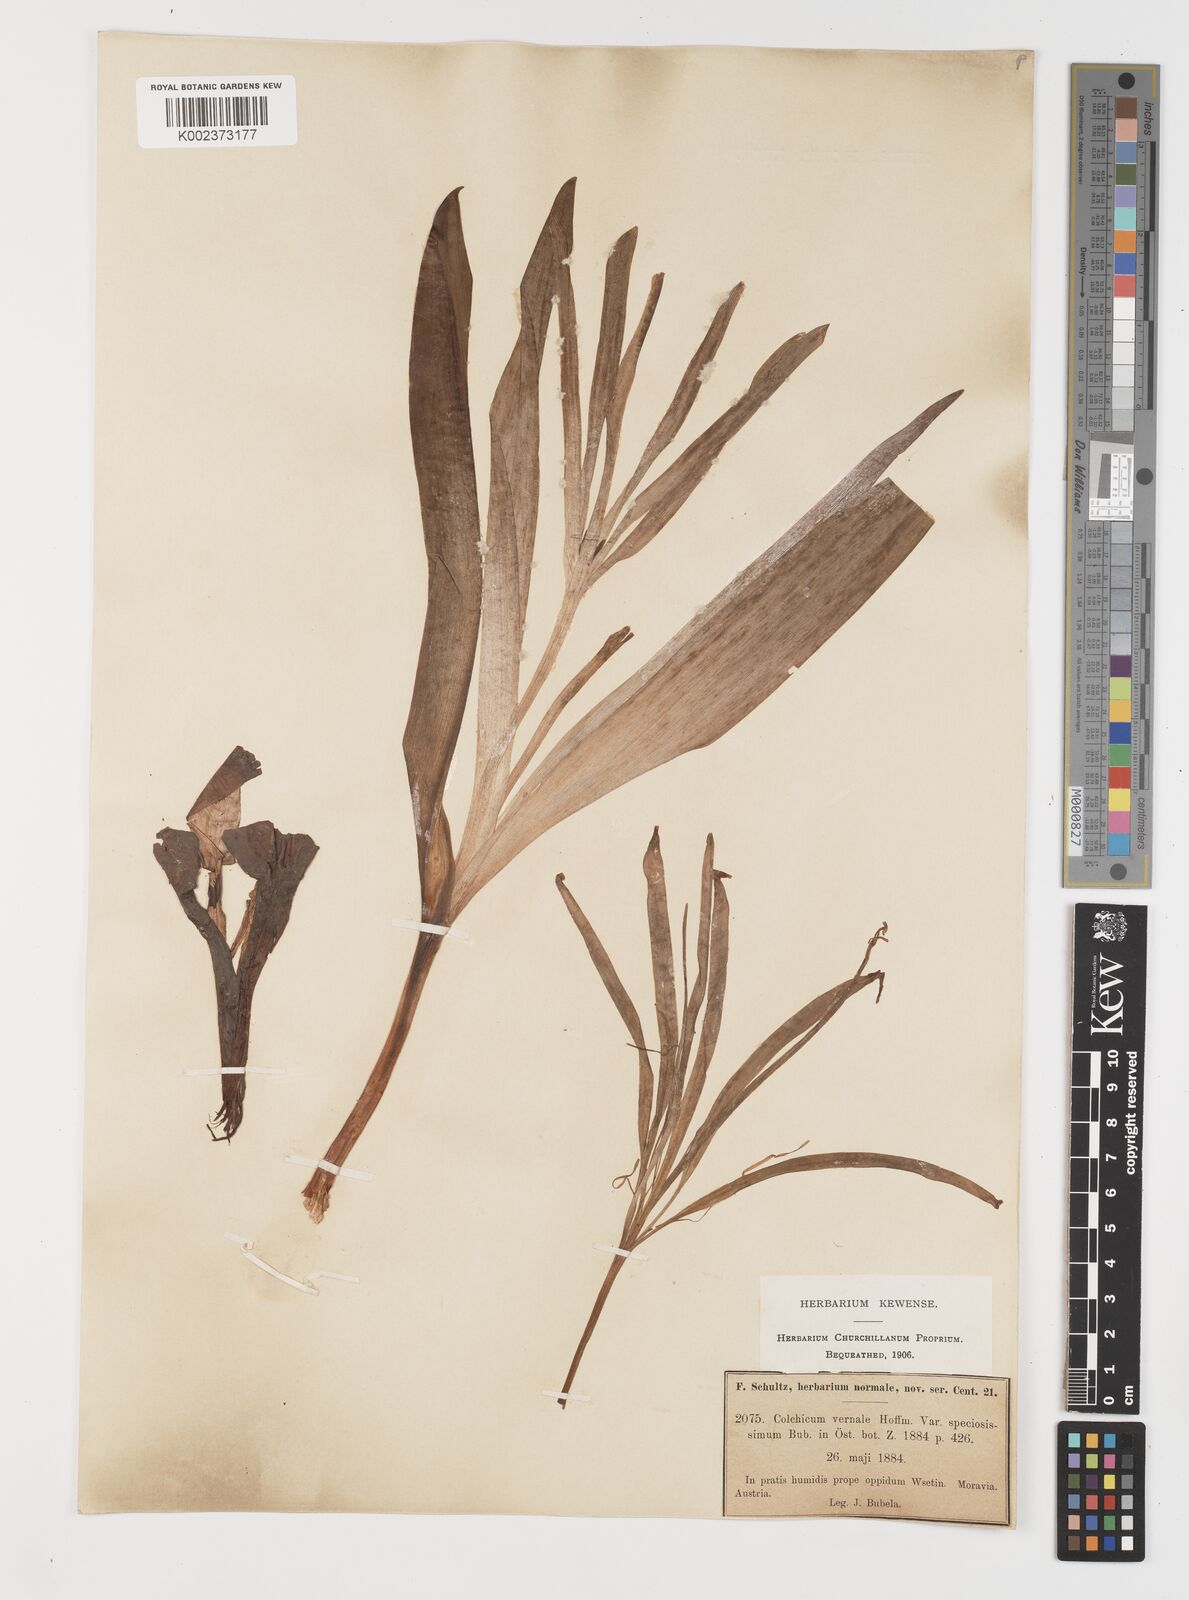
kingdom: Plantae
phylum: Tracheophyta
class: Liliopsida
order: Liliales
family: Colchicaceae
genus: Colchicum
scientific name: Colchicum autumnale
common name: Autumn crocus
